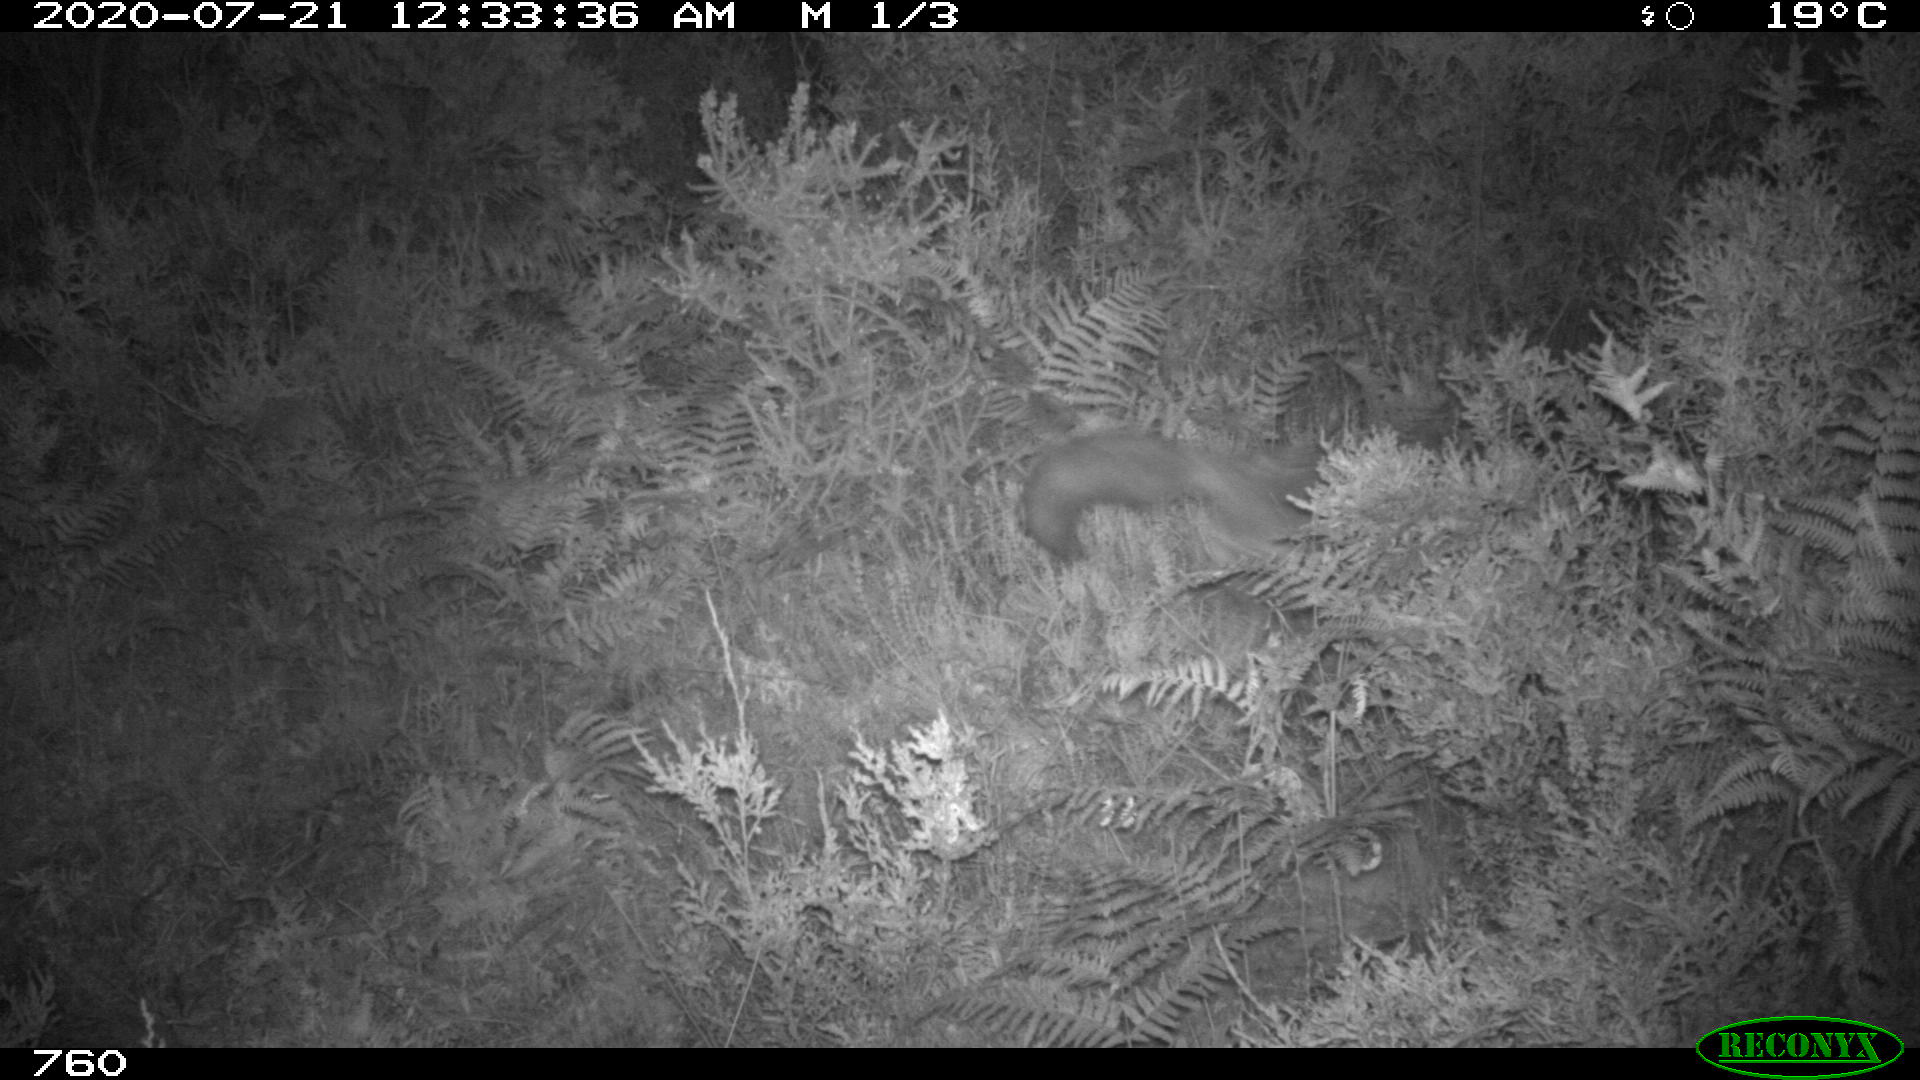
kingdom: Animalia
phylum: Chordata
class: Mammalia
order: Carnivora
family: Canidae
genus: Vulpes
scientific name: Vulpes vulpes
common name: Red fox
